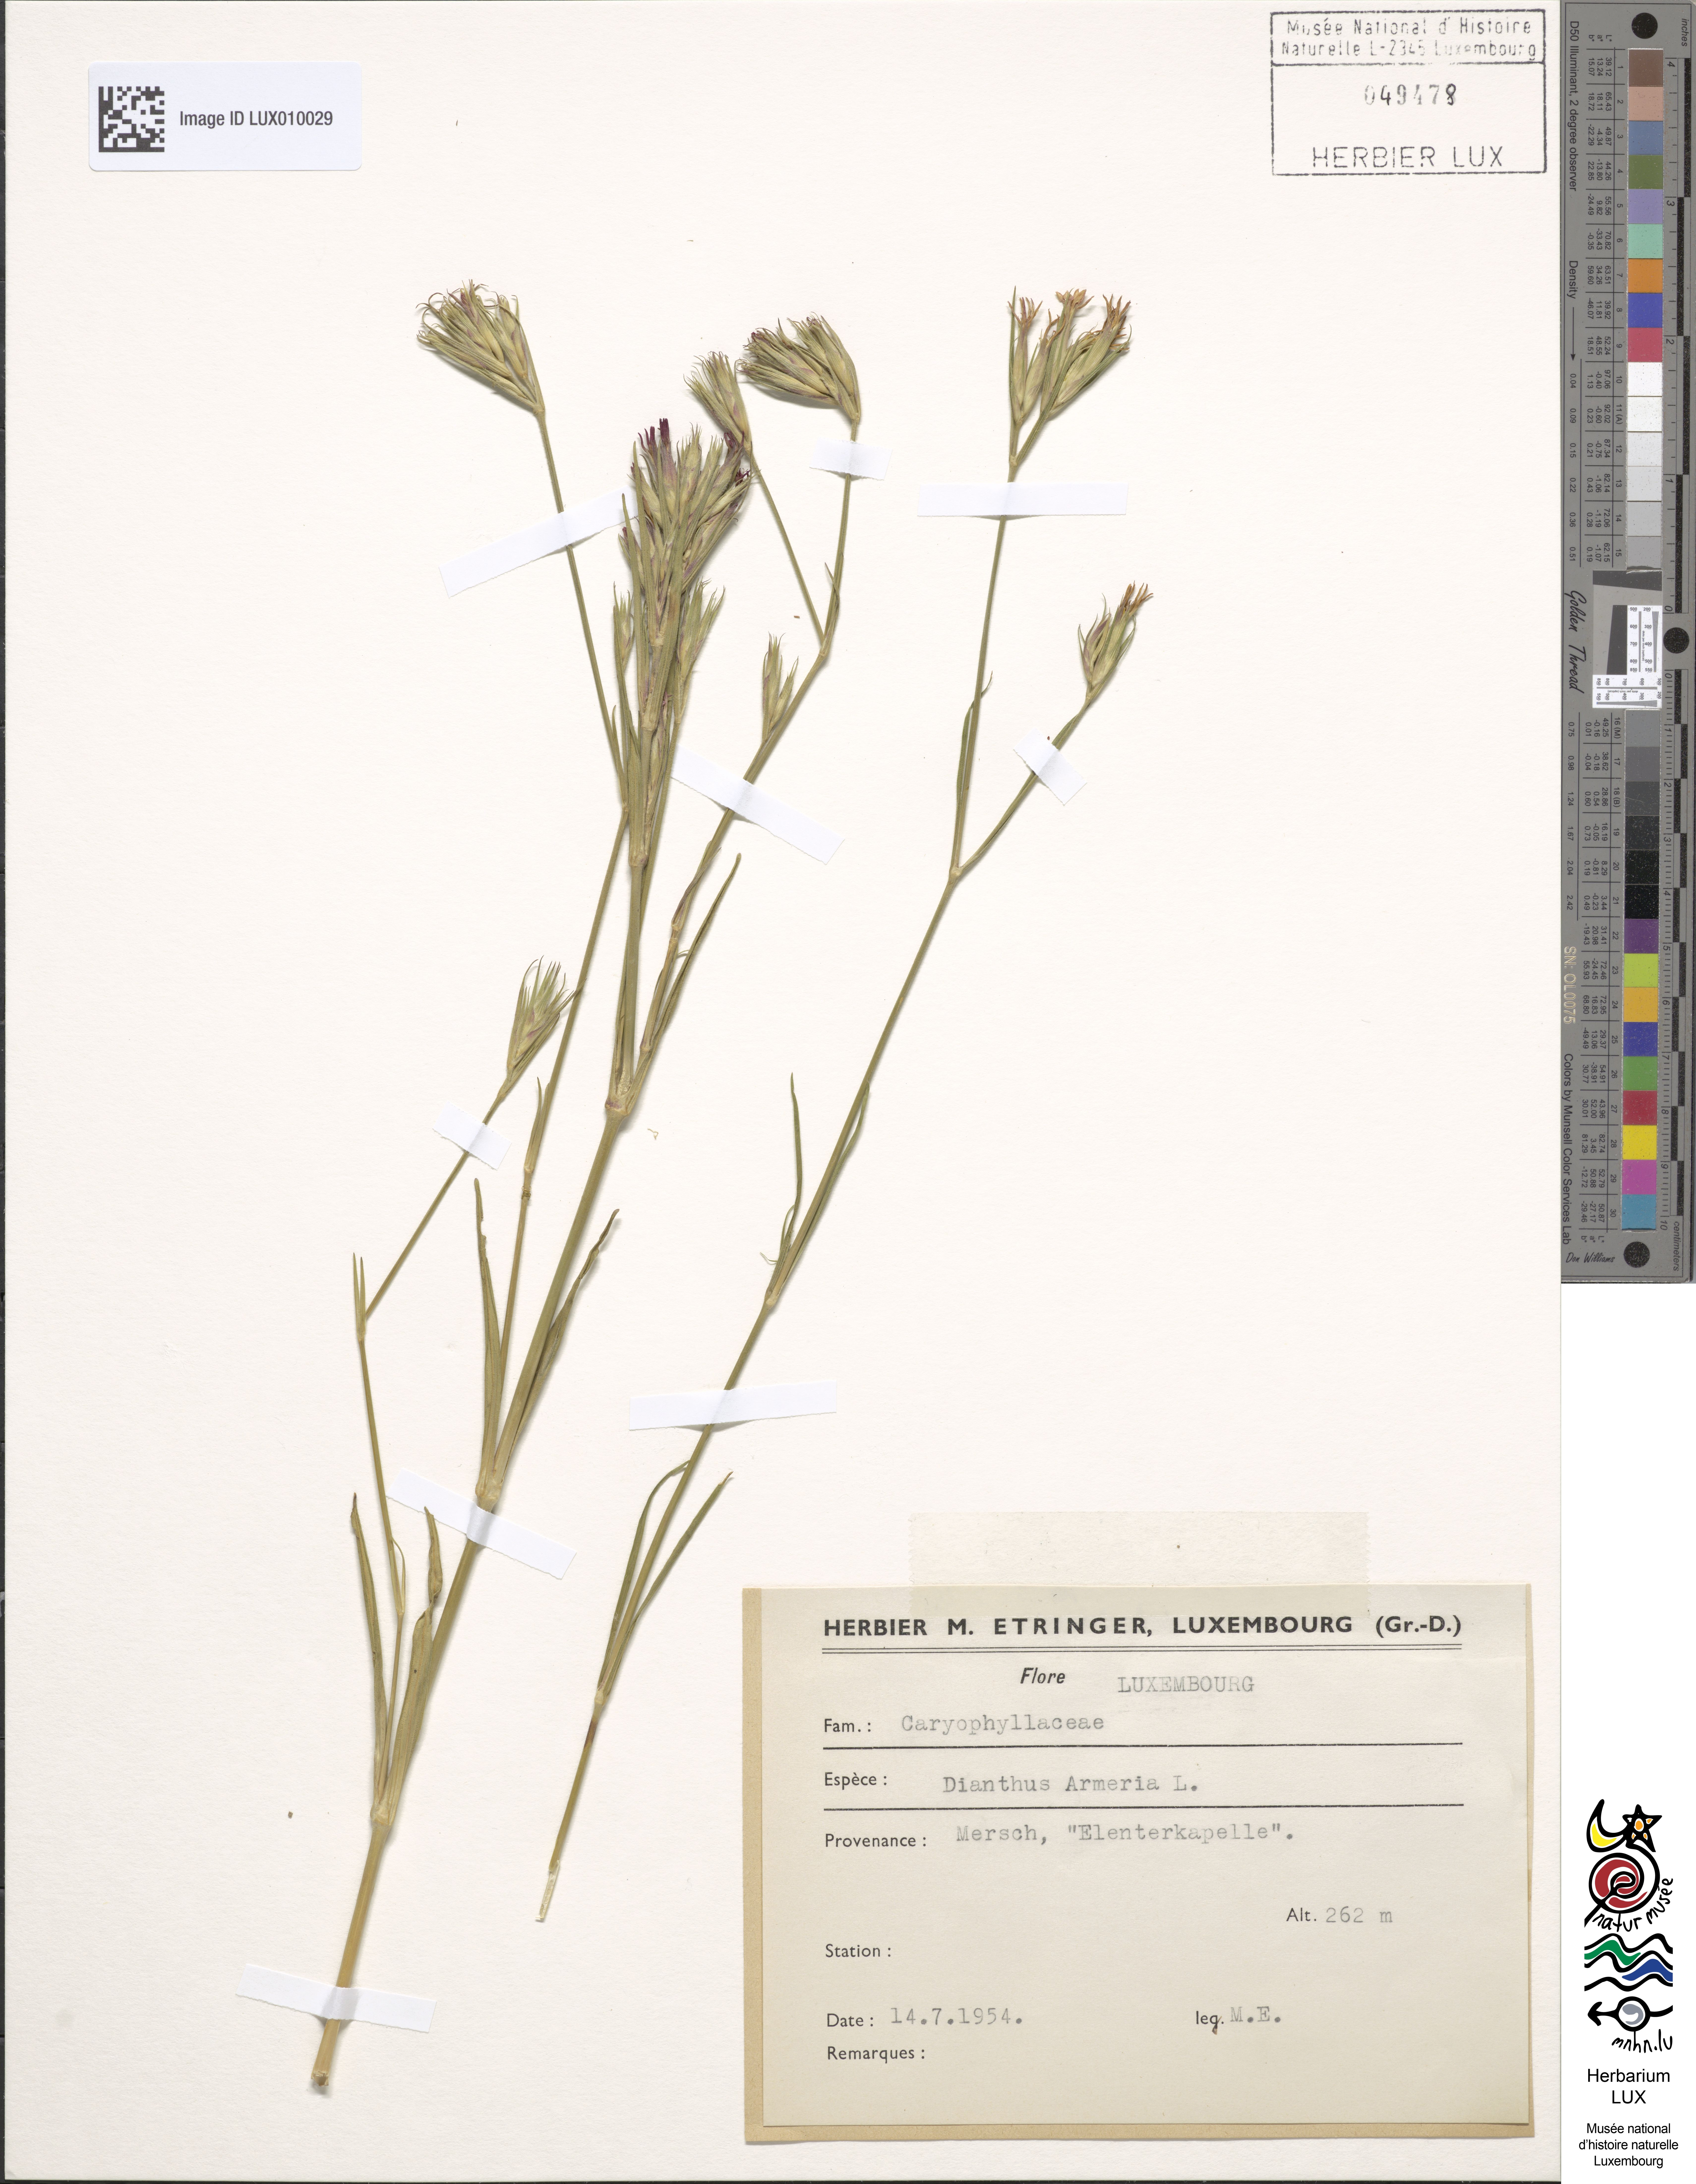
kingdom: Plantae
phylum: Tracheophyta
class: Magnoliopsida
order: Caryophyllales
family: Caryophyllaceae
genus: Dianthus
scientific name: Dianthus armeria
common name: Deptford pink
